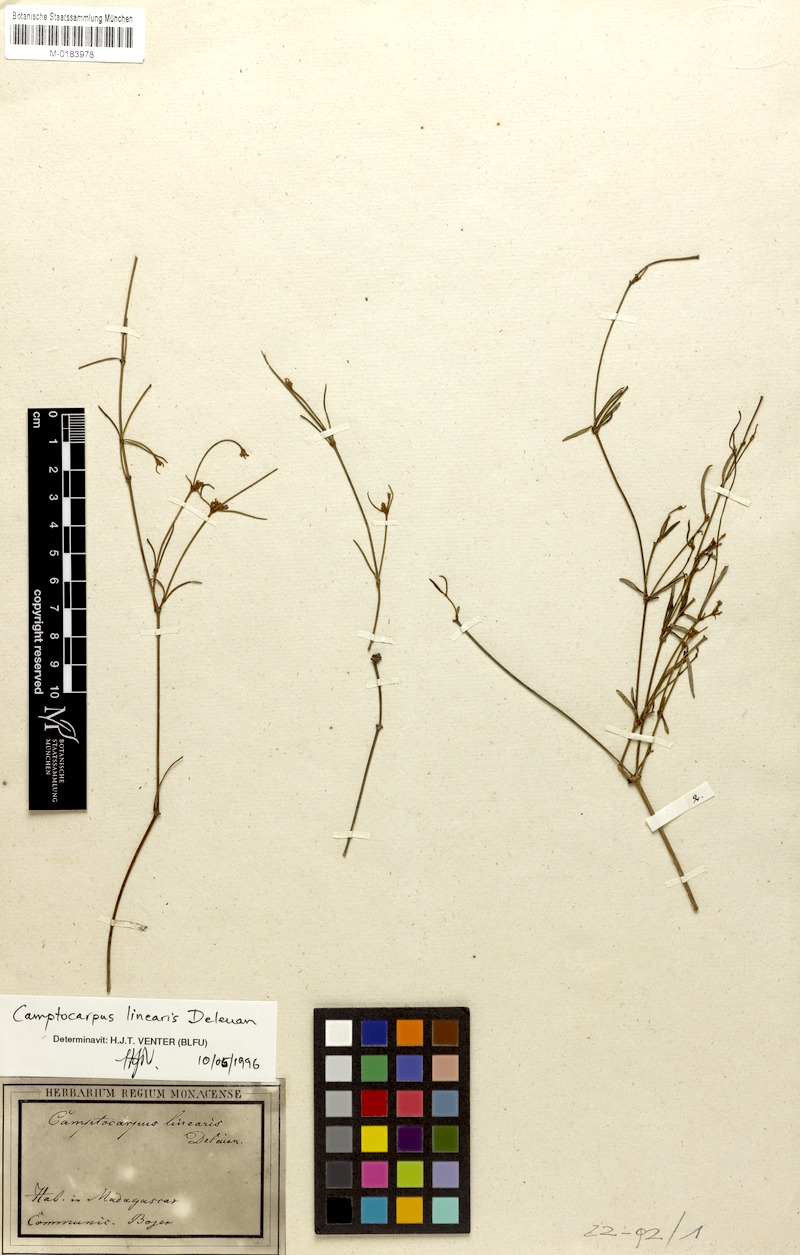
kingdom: Plantae
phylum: Tracheophyta
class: Magnoliopsida
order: Gentianales
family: Apocynaceae
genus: Camptocarpus
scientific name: Camptocarpus linearis
